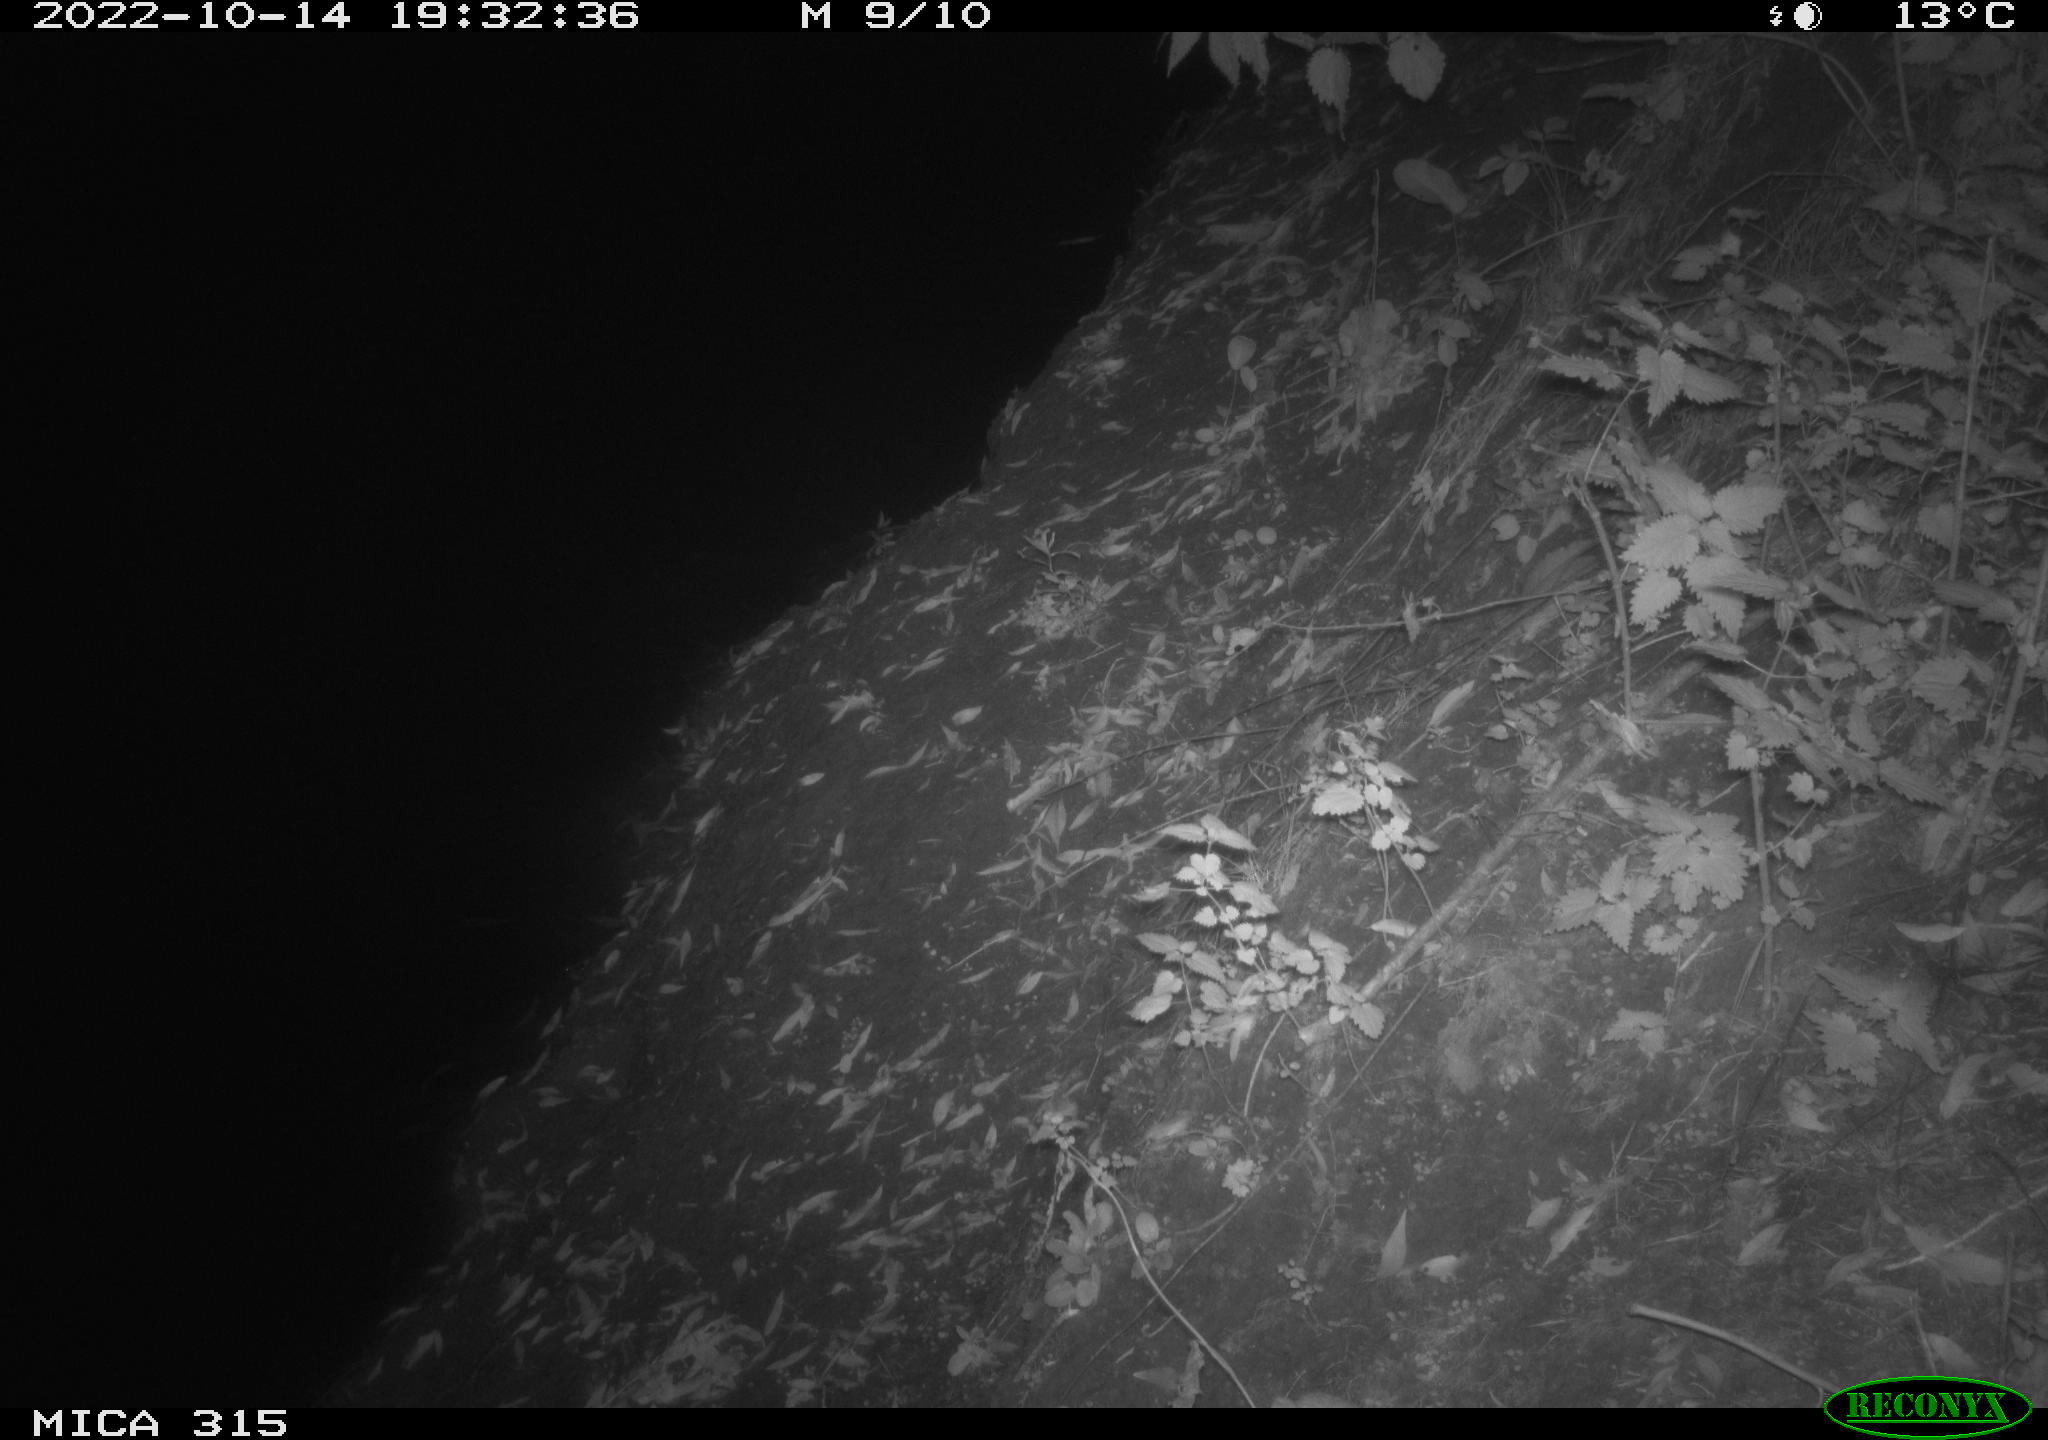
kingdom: Animalia
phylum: Chordata
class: Mammalia
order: Carnivora
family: Canidae
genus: Vulpes
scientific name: Vulpes vulpes
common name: Red fox
